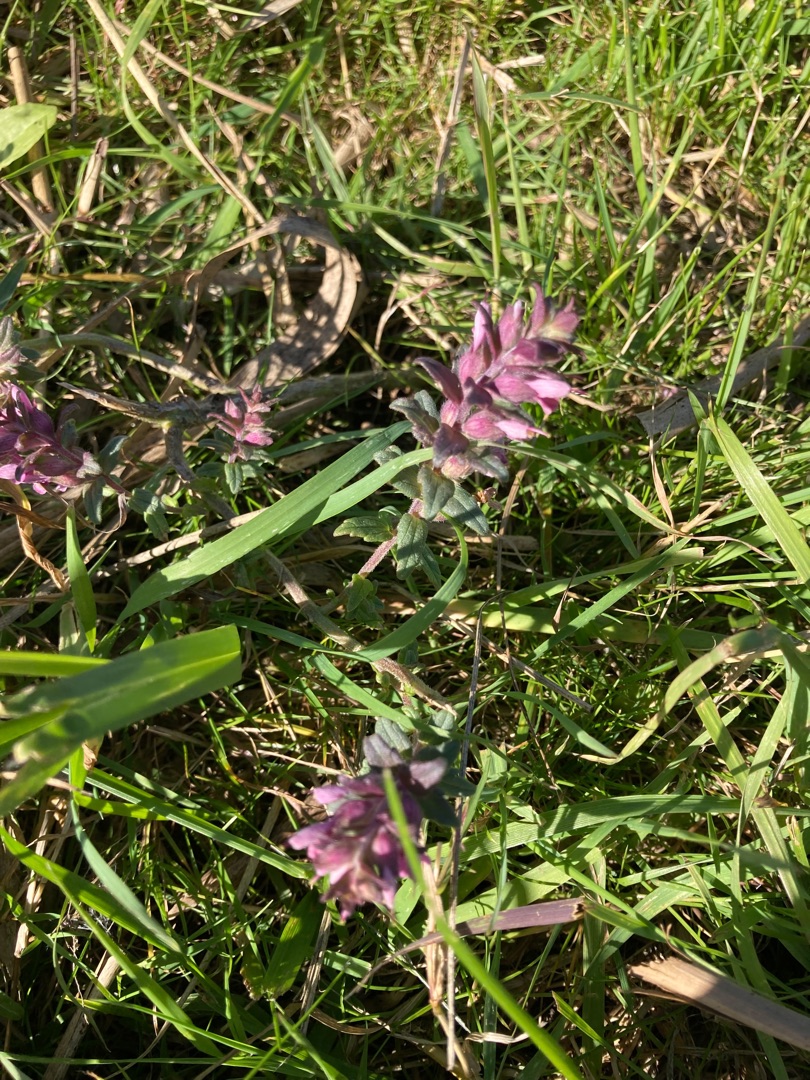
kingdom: Plantae
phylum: Tracheophyta
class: Magnoliopsida
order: Lamiales
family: Orobanchaceae
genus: Odontites
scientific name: Odontites vulgaris
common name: Høst-rødtop
